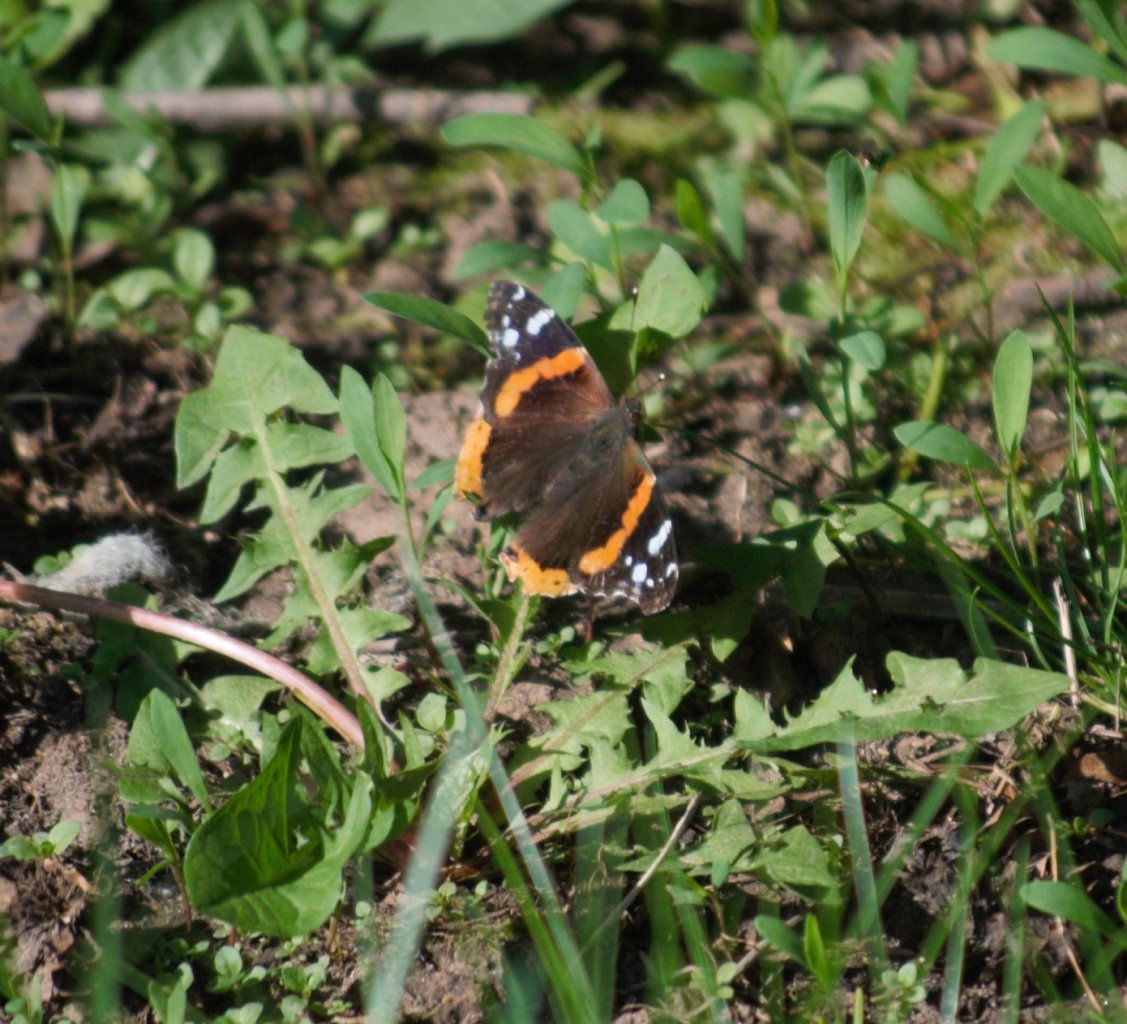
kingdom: Animalia
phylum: Arthropoda
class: Insecta
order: Lepidoptera
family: Nymphalidae
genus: Vanessa
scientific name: Vanessa atalanta
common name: Red Admiral
